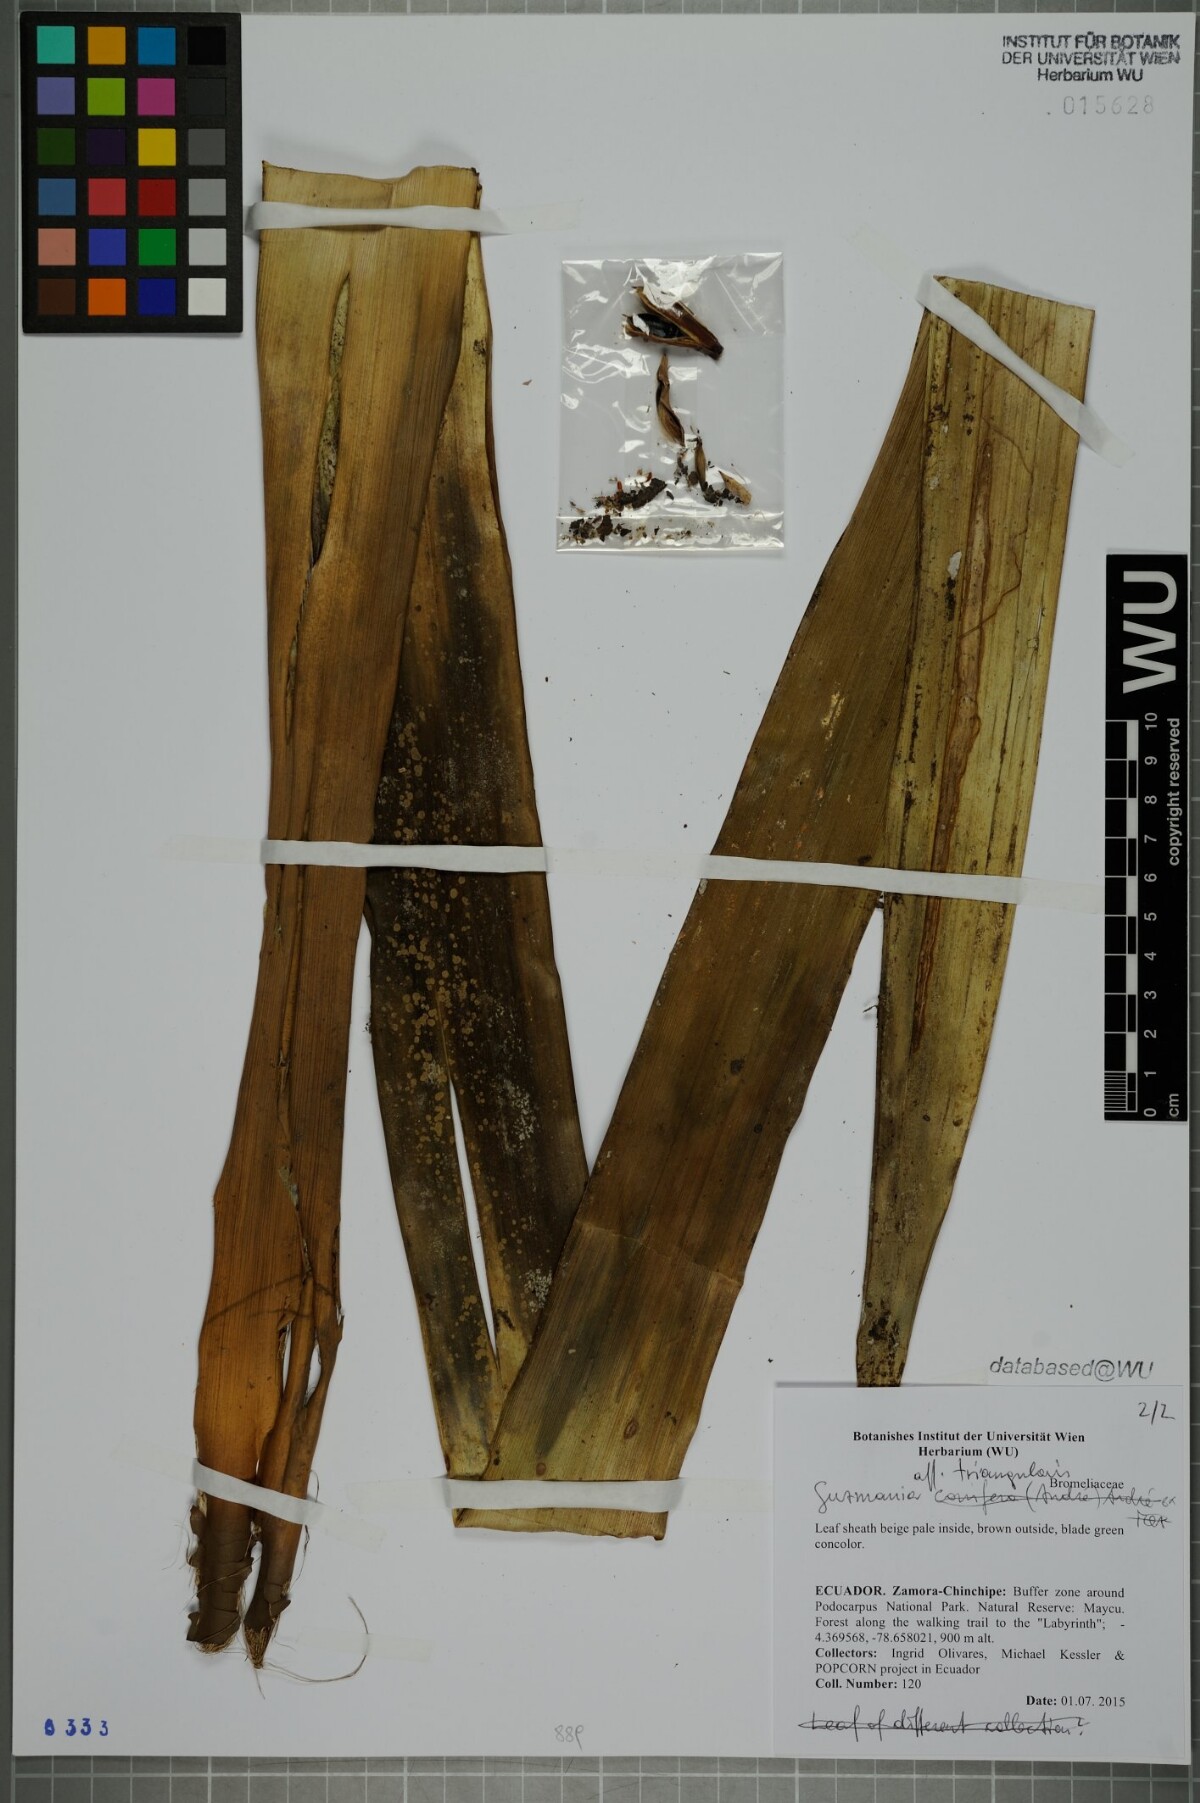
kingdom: Plantae
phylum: Tracheophyta
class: Liliopsida
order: Poales
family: Bromeliaceae
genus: Guzmania
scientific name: Guzmania triangularis
